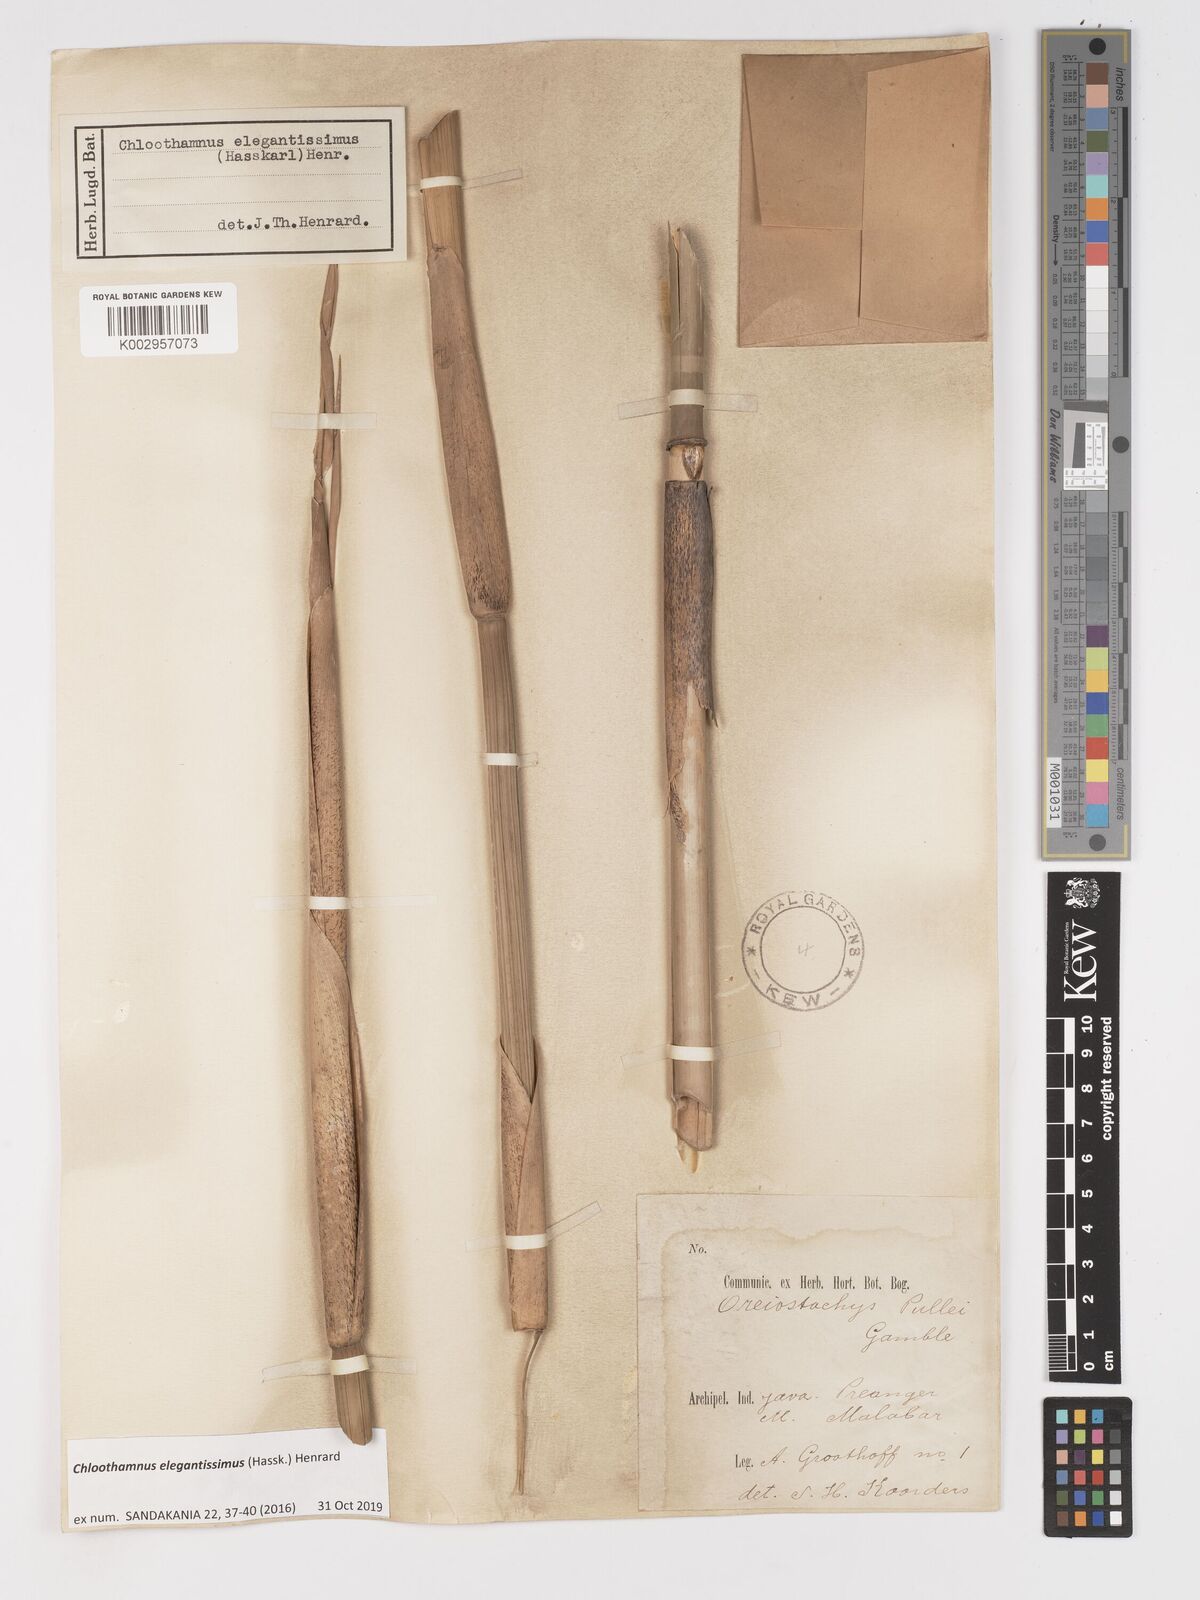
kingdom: Plantae
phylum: Tracheophyta
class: Liliopsida
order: Poales
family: Poaceae
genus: Chloothamnus
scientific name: Chloothamnus elegantissimus
